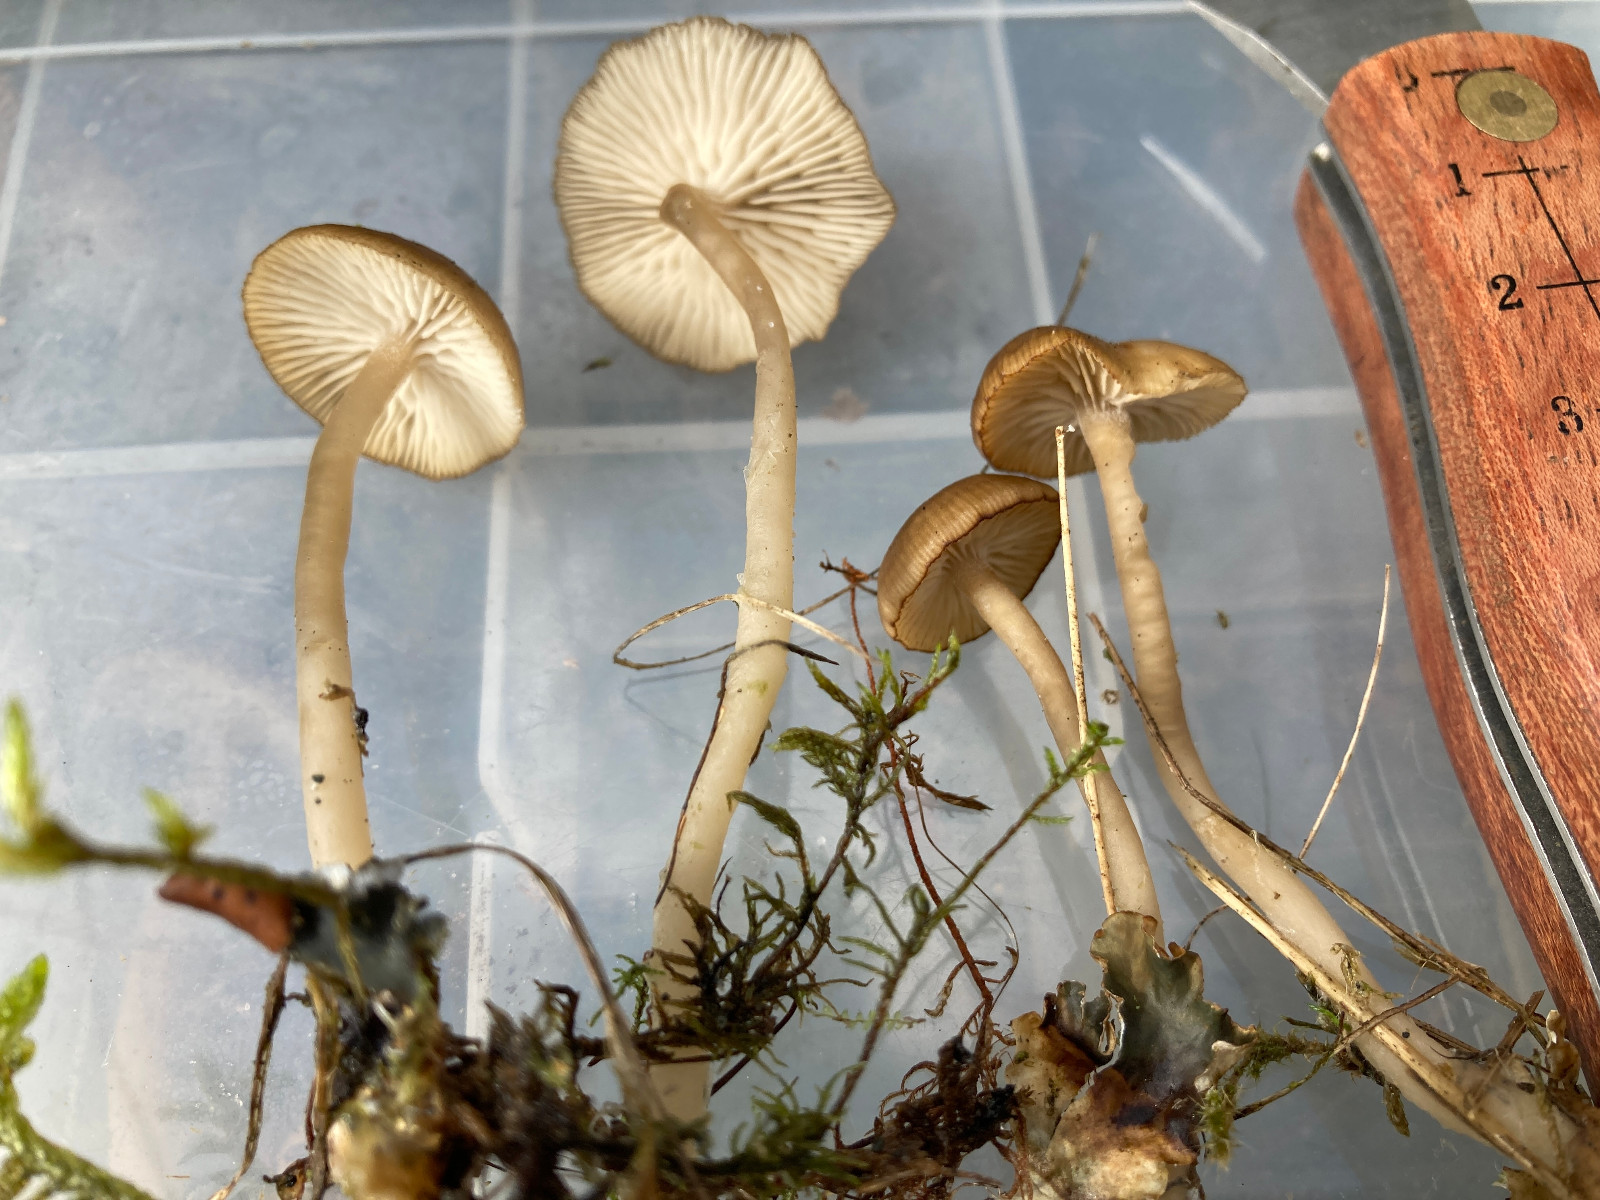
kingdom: Fungi
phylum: Basidiomycota
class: Agaricomycetes
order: Agaricales
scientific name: Agaricales
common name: champignonordenen
